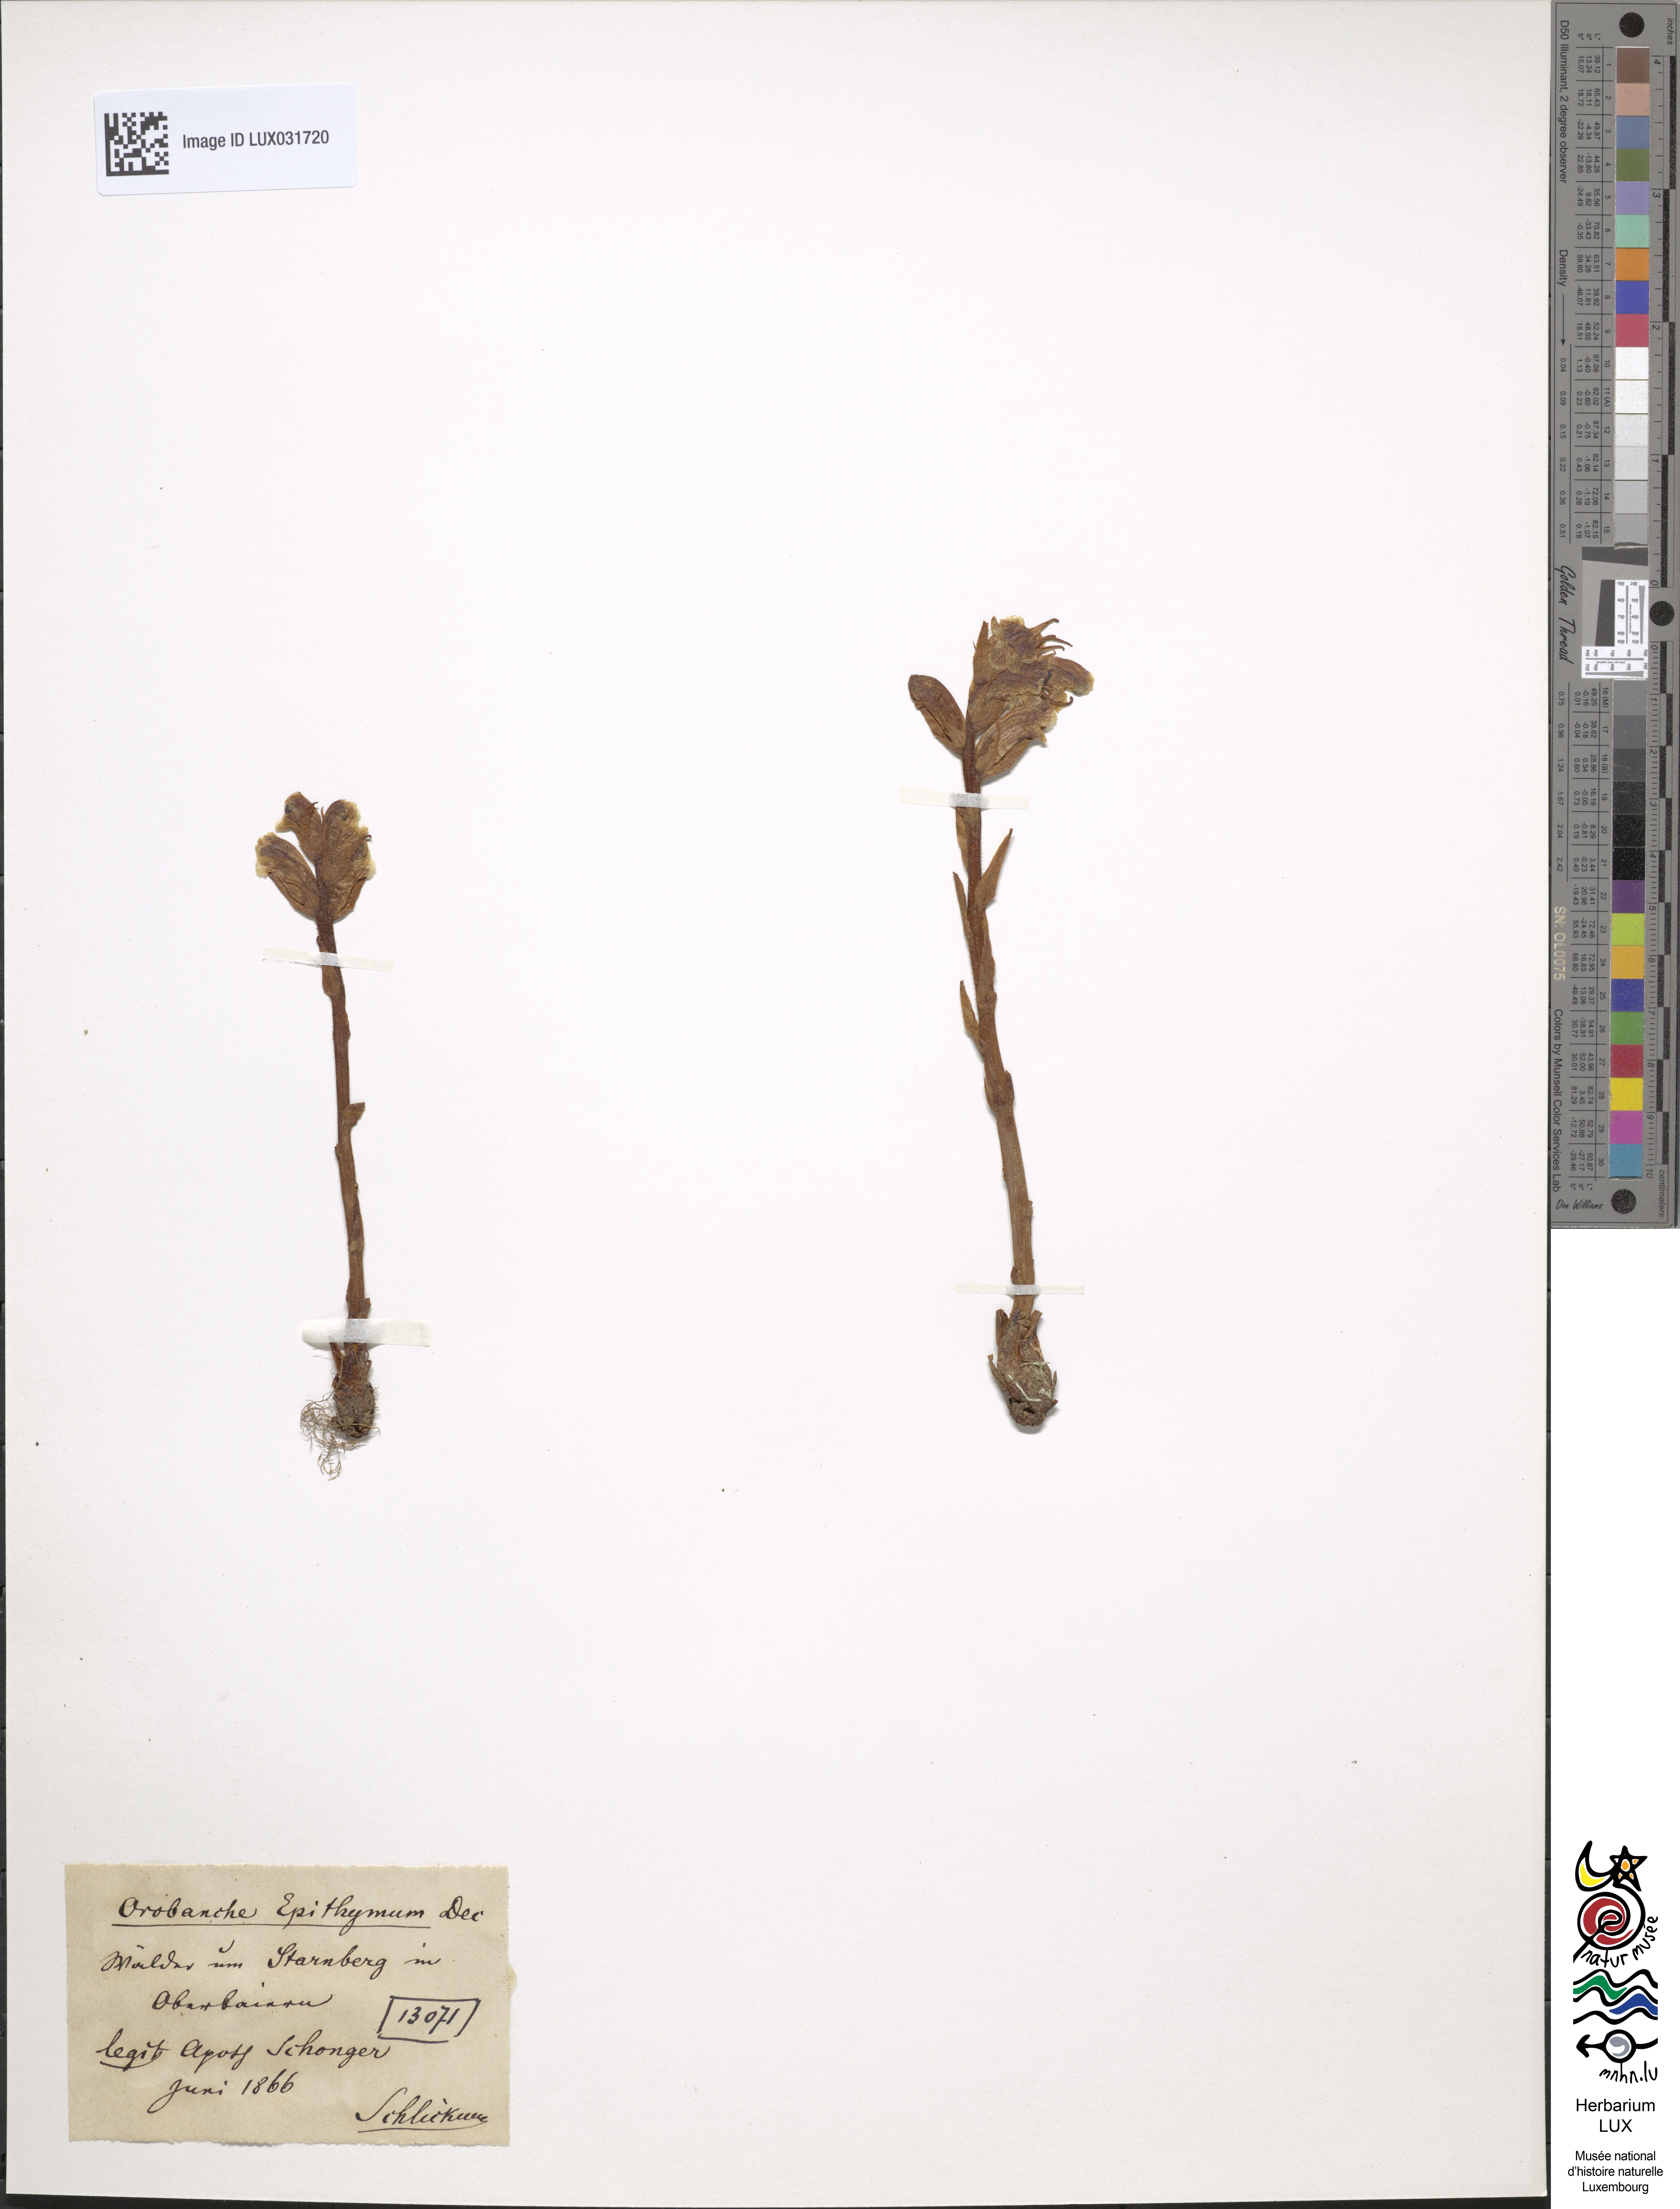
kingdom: Plantae
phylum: Tracheophyta
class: Magnoliopsida
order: Lamiales
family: Orobanchaceae
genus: Orobanche
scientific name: Orobanche alba
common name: Thyme broomrape
